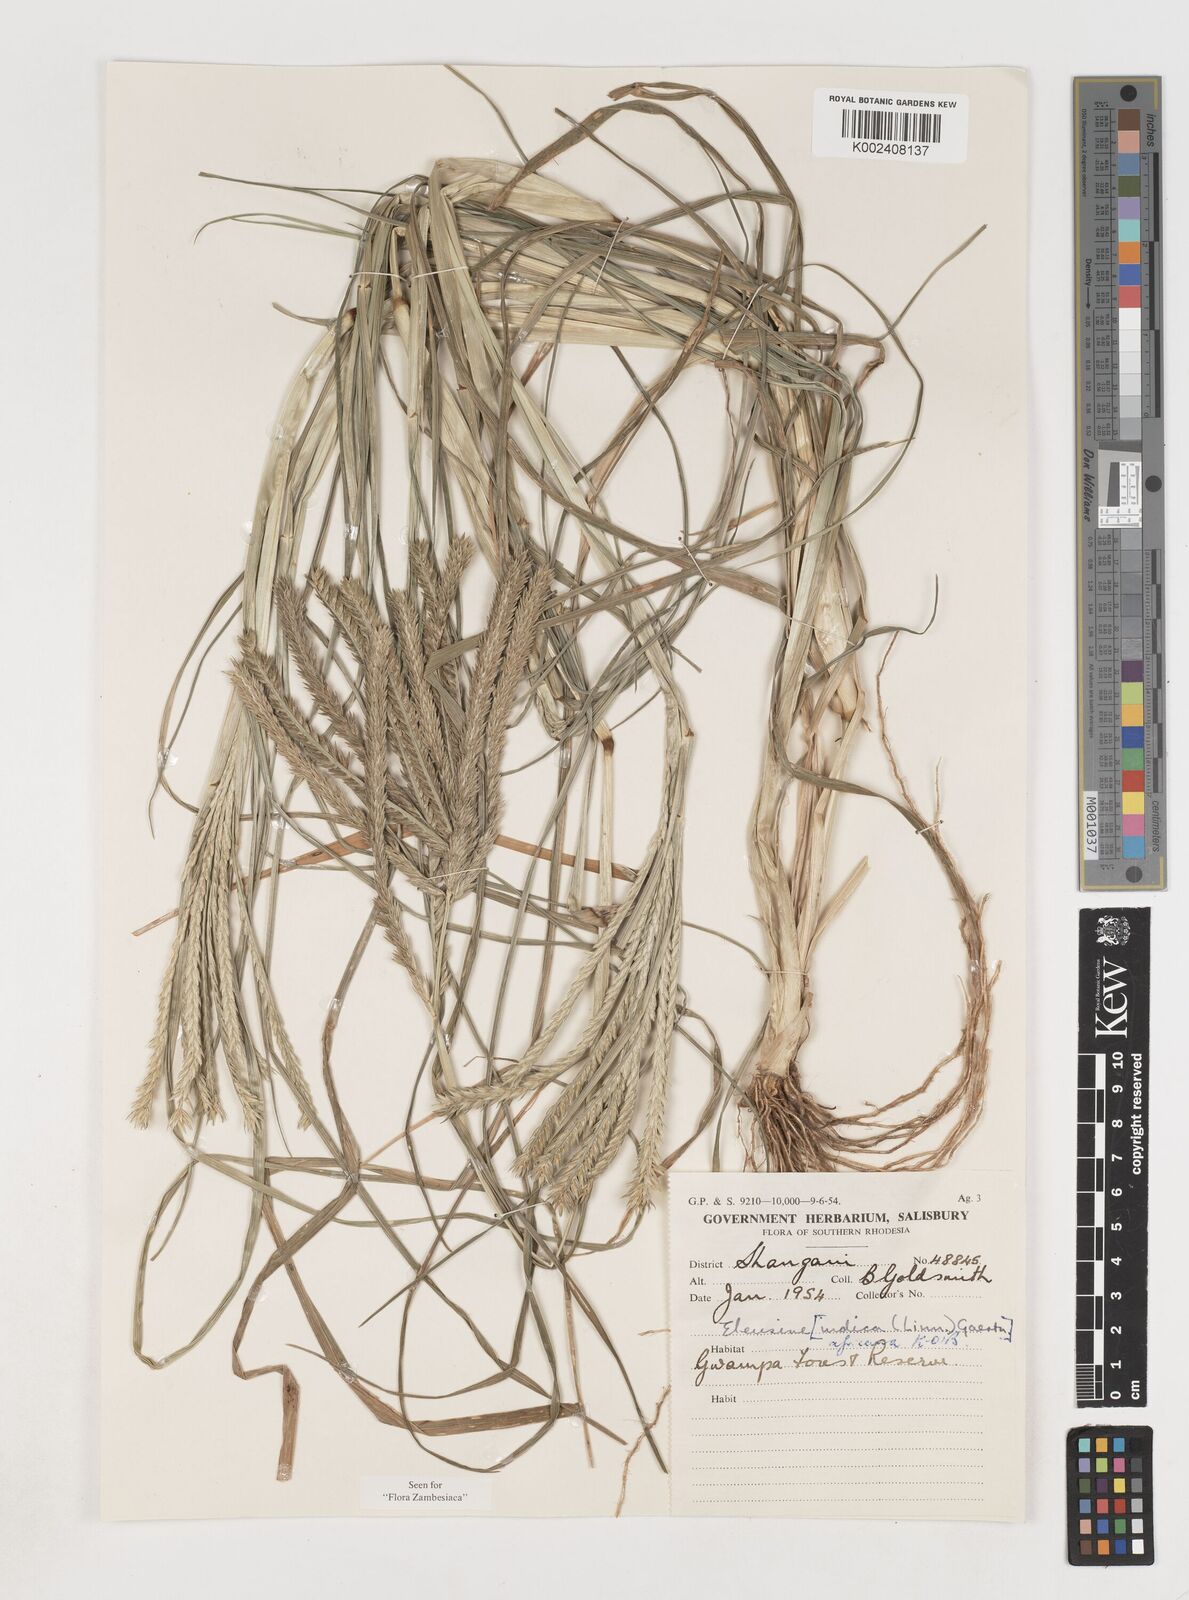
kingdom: Plantae
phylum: Tracheophyta
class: Liliopsida
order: Poales
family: Poaceae
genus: Eleusine
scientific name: Eleusine africana
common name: Wild african finger millet
